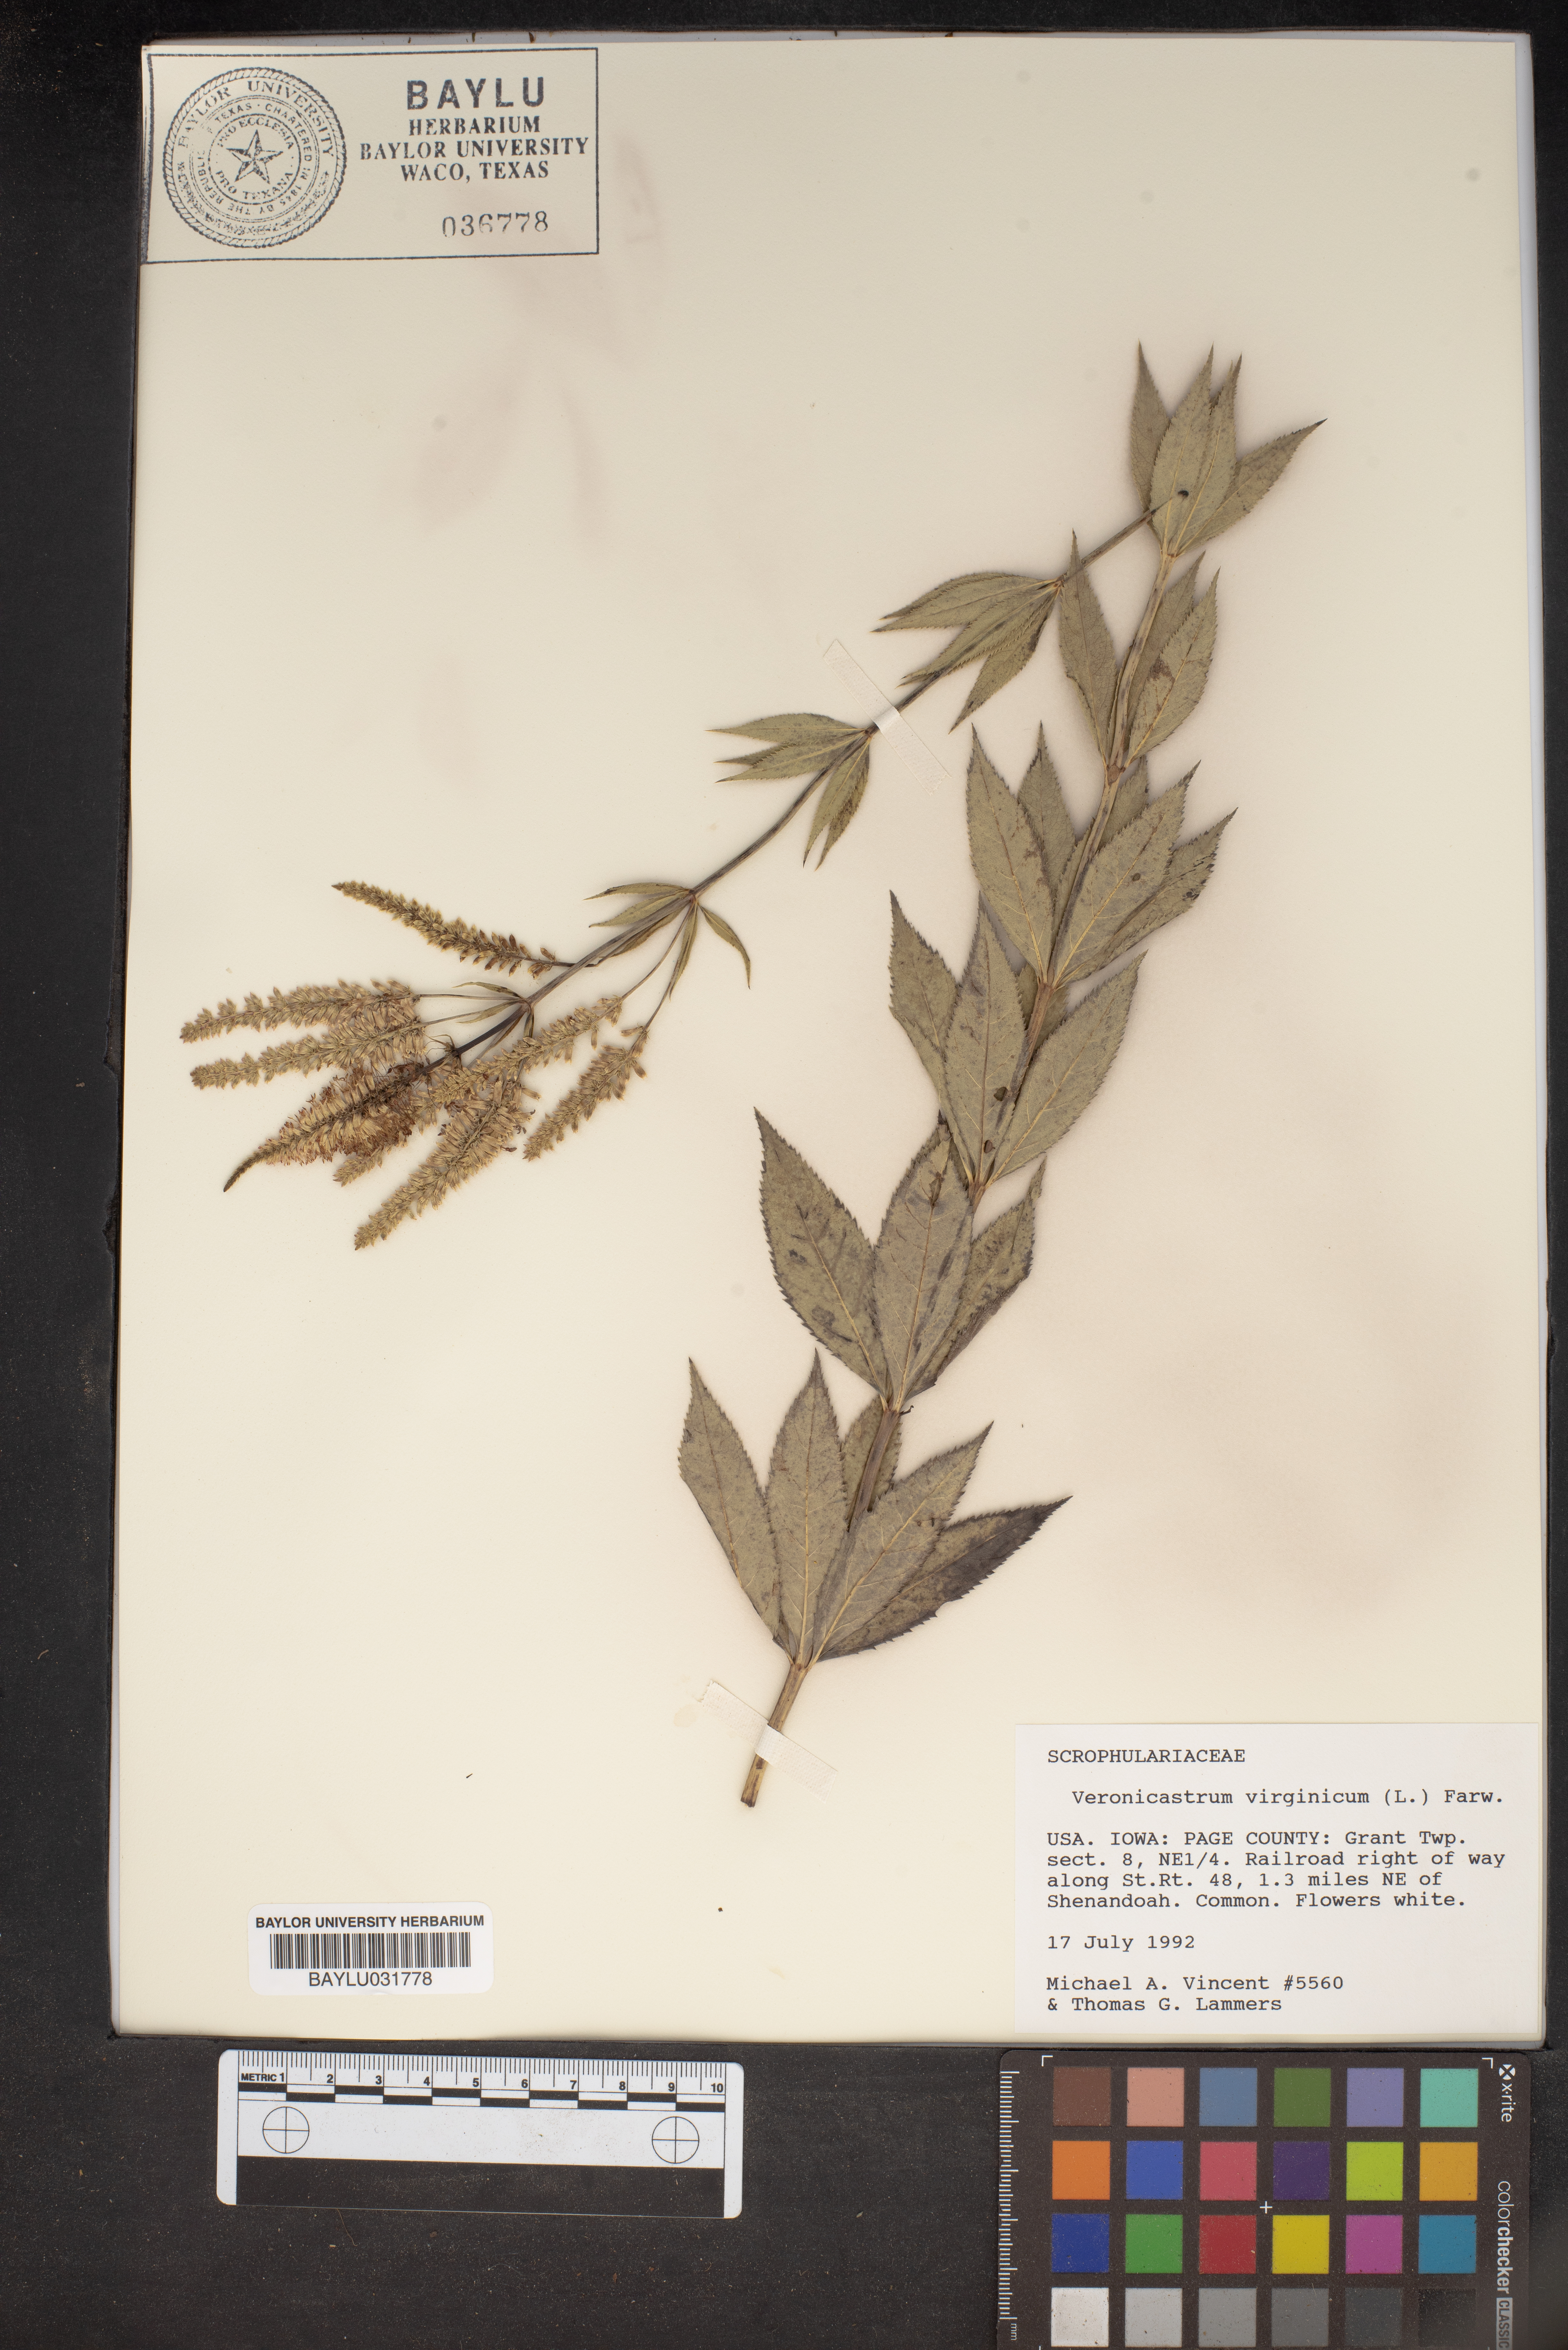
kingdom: Plantae
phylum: Tracheophyta
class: Magnoliopsida
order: Lamiales
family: Plantaginaceae
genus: Veronicastrum
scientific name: Veronicastrum virginicum
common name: Blackroot
